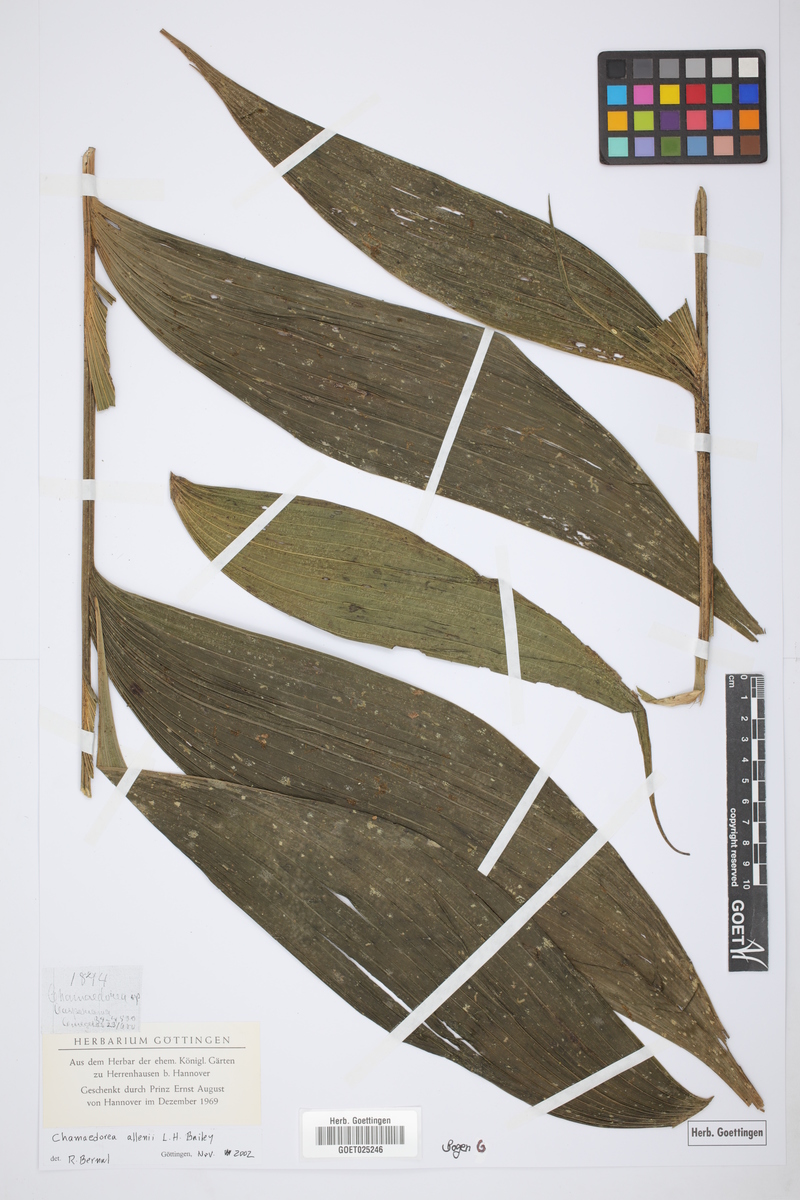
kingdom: Plantae
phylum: Tracheophyta
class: Liliopsida
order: Arecales
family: Arecaceae
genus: Chamaedorea
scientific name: Chamaedorea allenii
